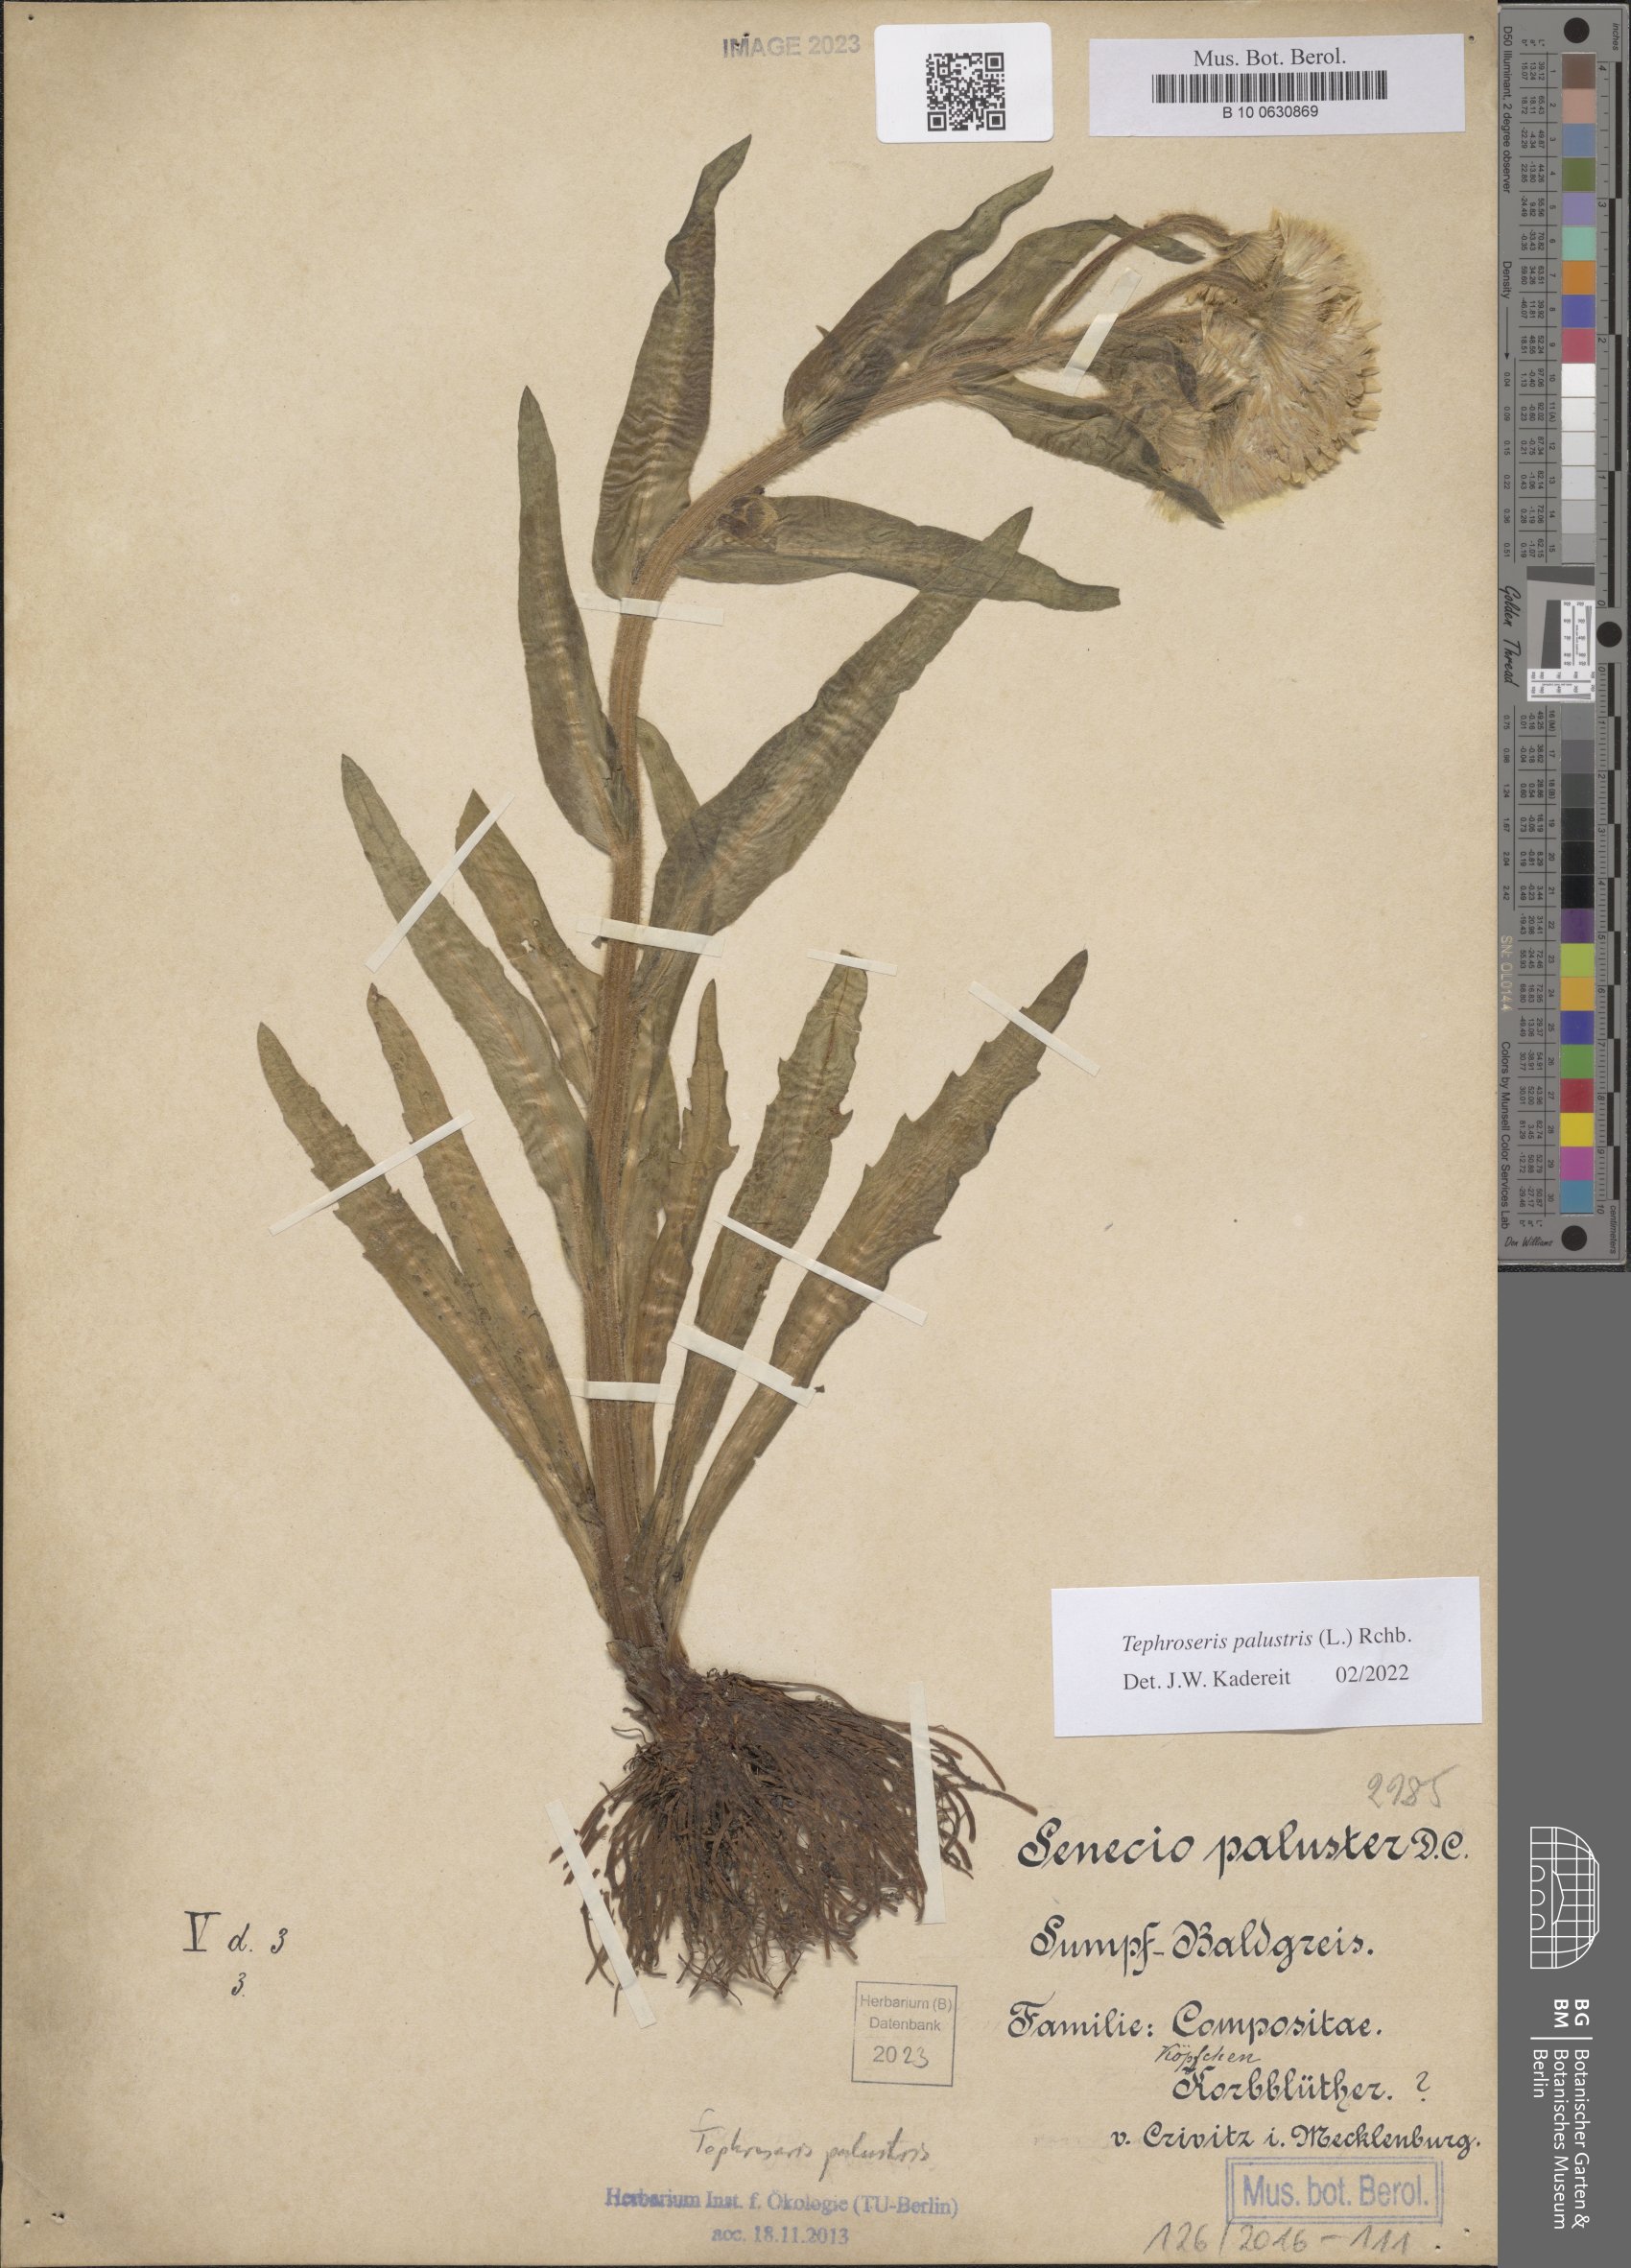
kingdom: Plantae
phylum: Tracheophyta
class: Magnoliopsida
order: Asterales
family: Asteraceae
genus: Tephroseris
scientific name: Tephroseris palustris
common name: Marsh fleawort
